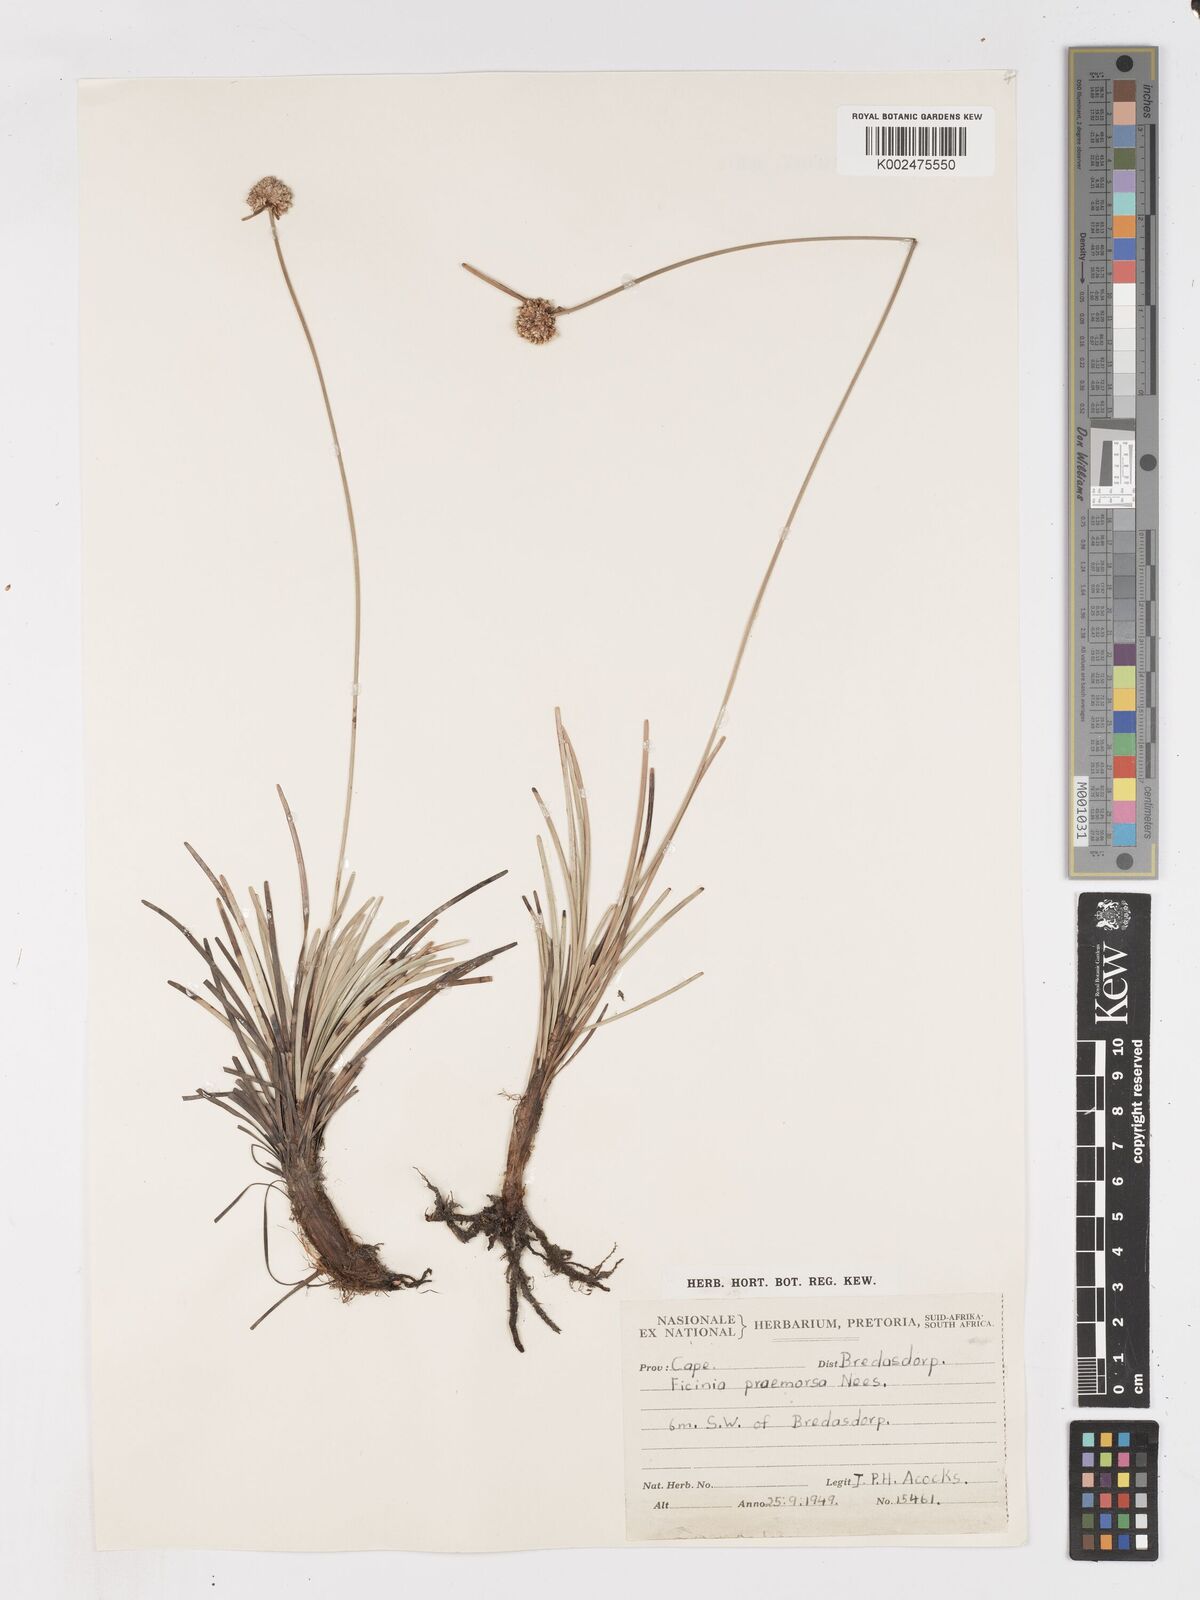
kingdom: Plantae
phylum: Tracheophyta
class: Liliopsida
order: Poales
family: Cyperaceae
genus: Ficinia
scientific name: Ficinia praemorsa
